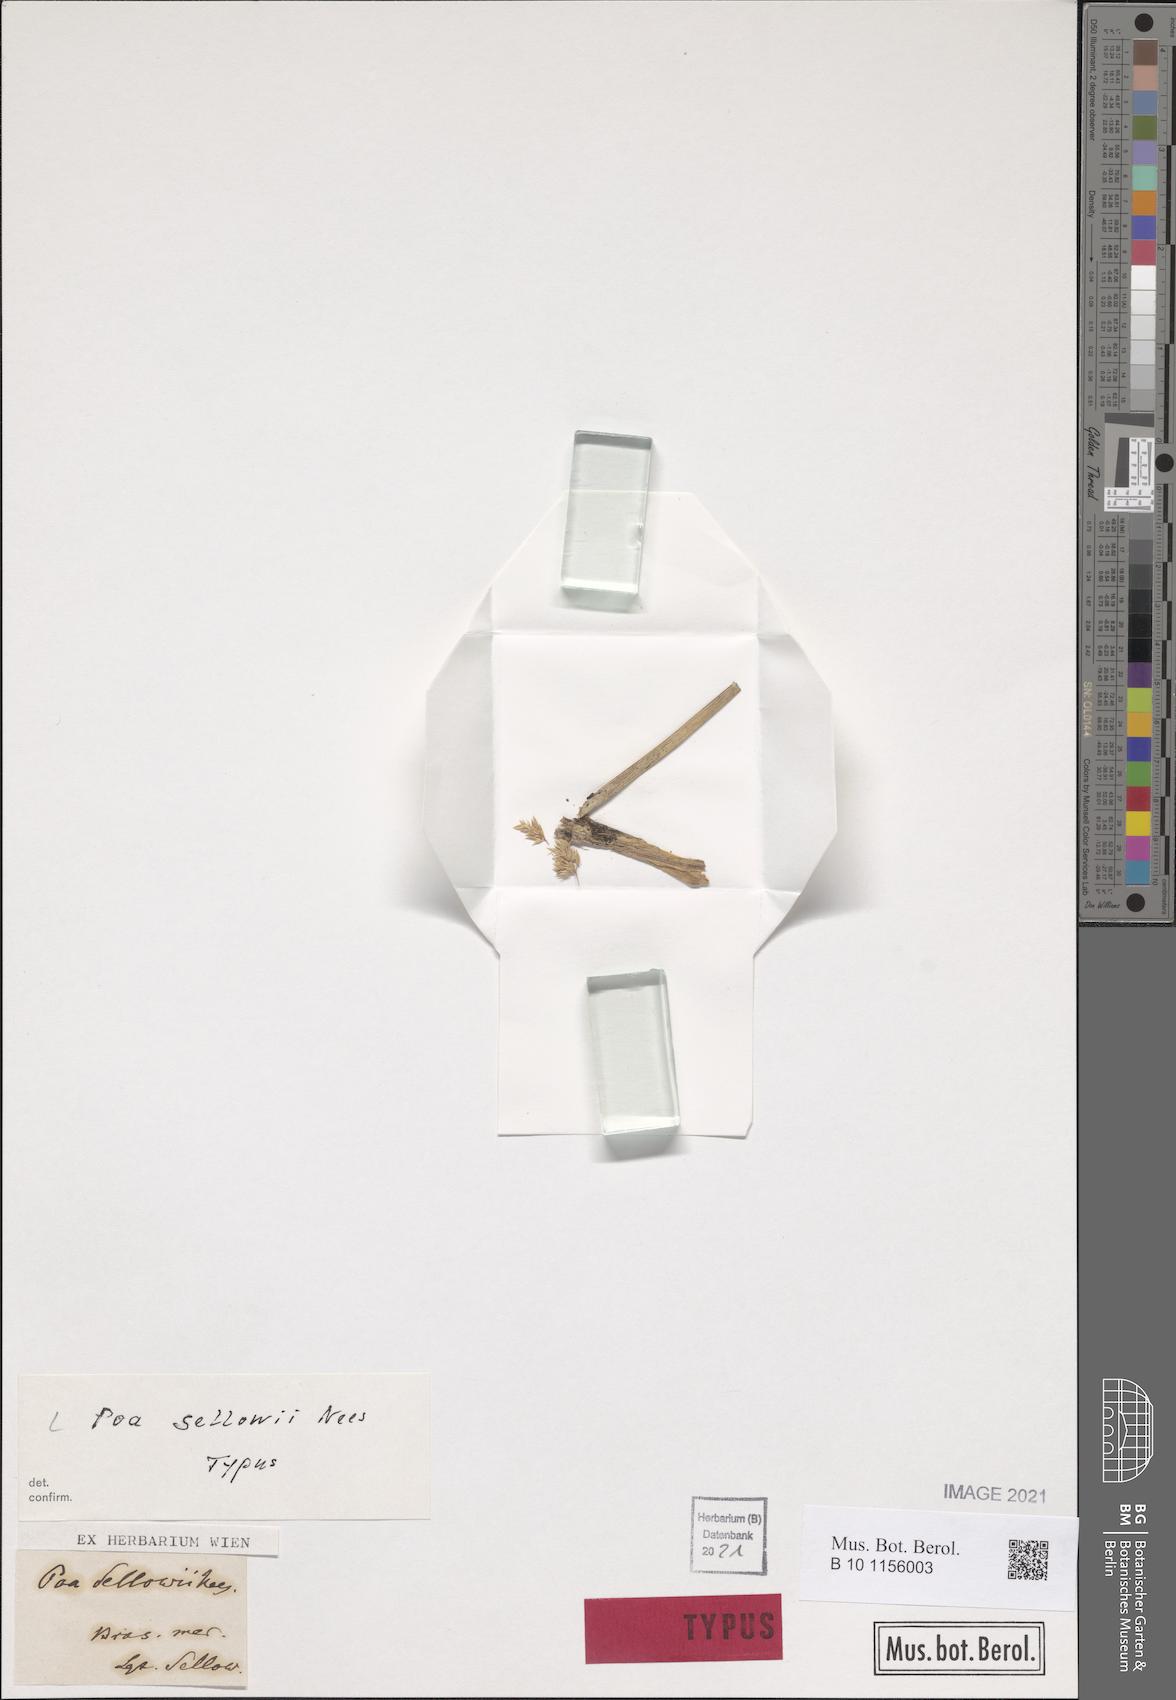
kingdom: Plantae
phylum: Tracheophyta
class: Liliopsida
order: Poales
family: Poaceae
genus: Poa
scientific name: Poa sellovii
